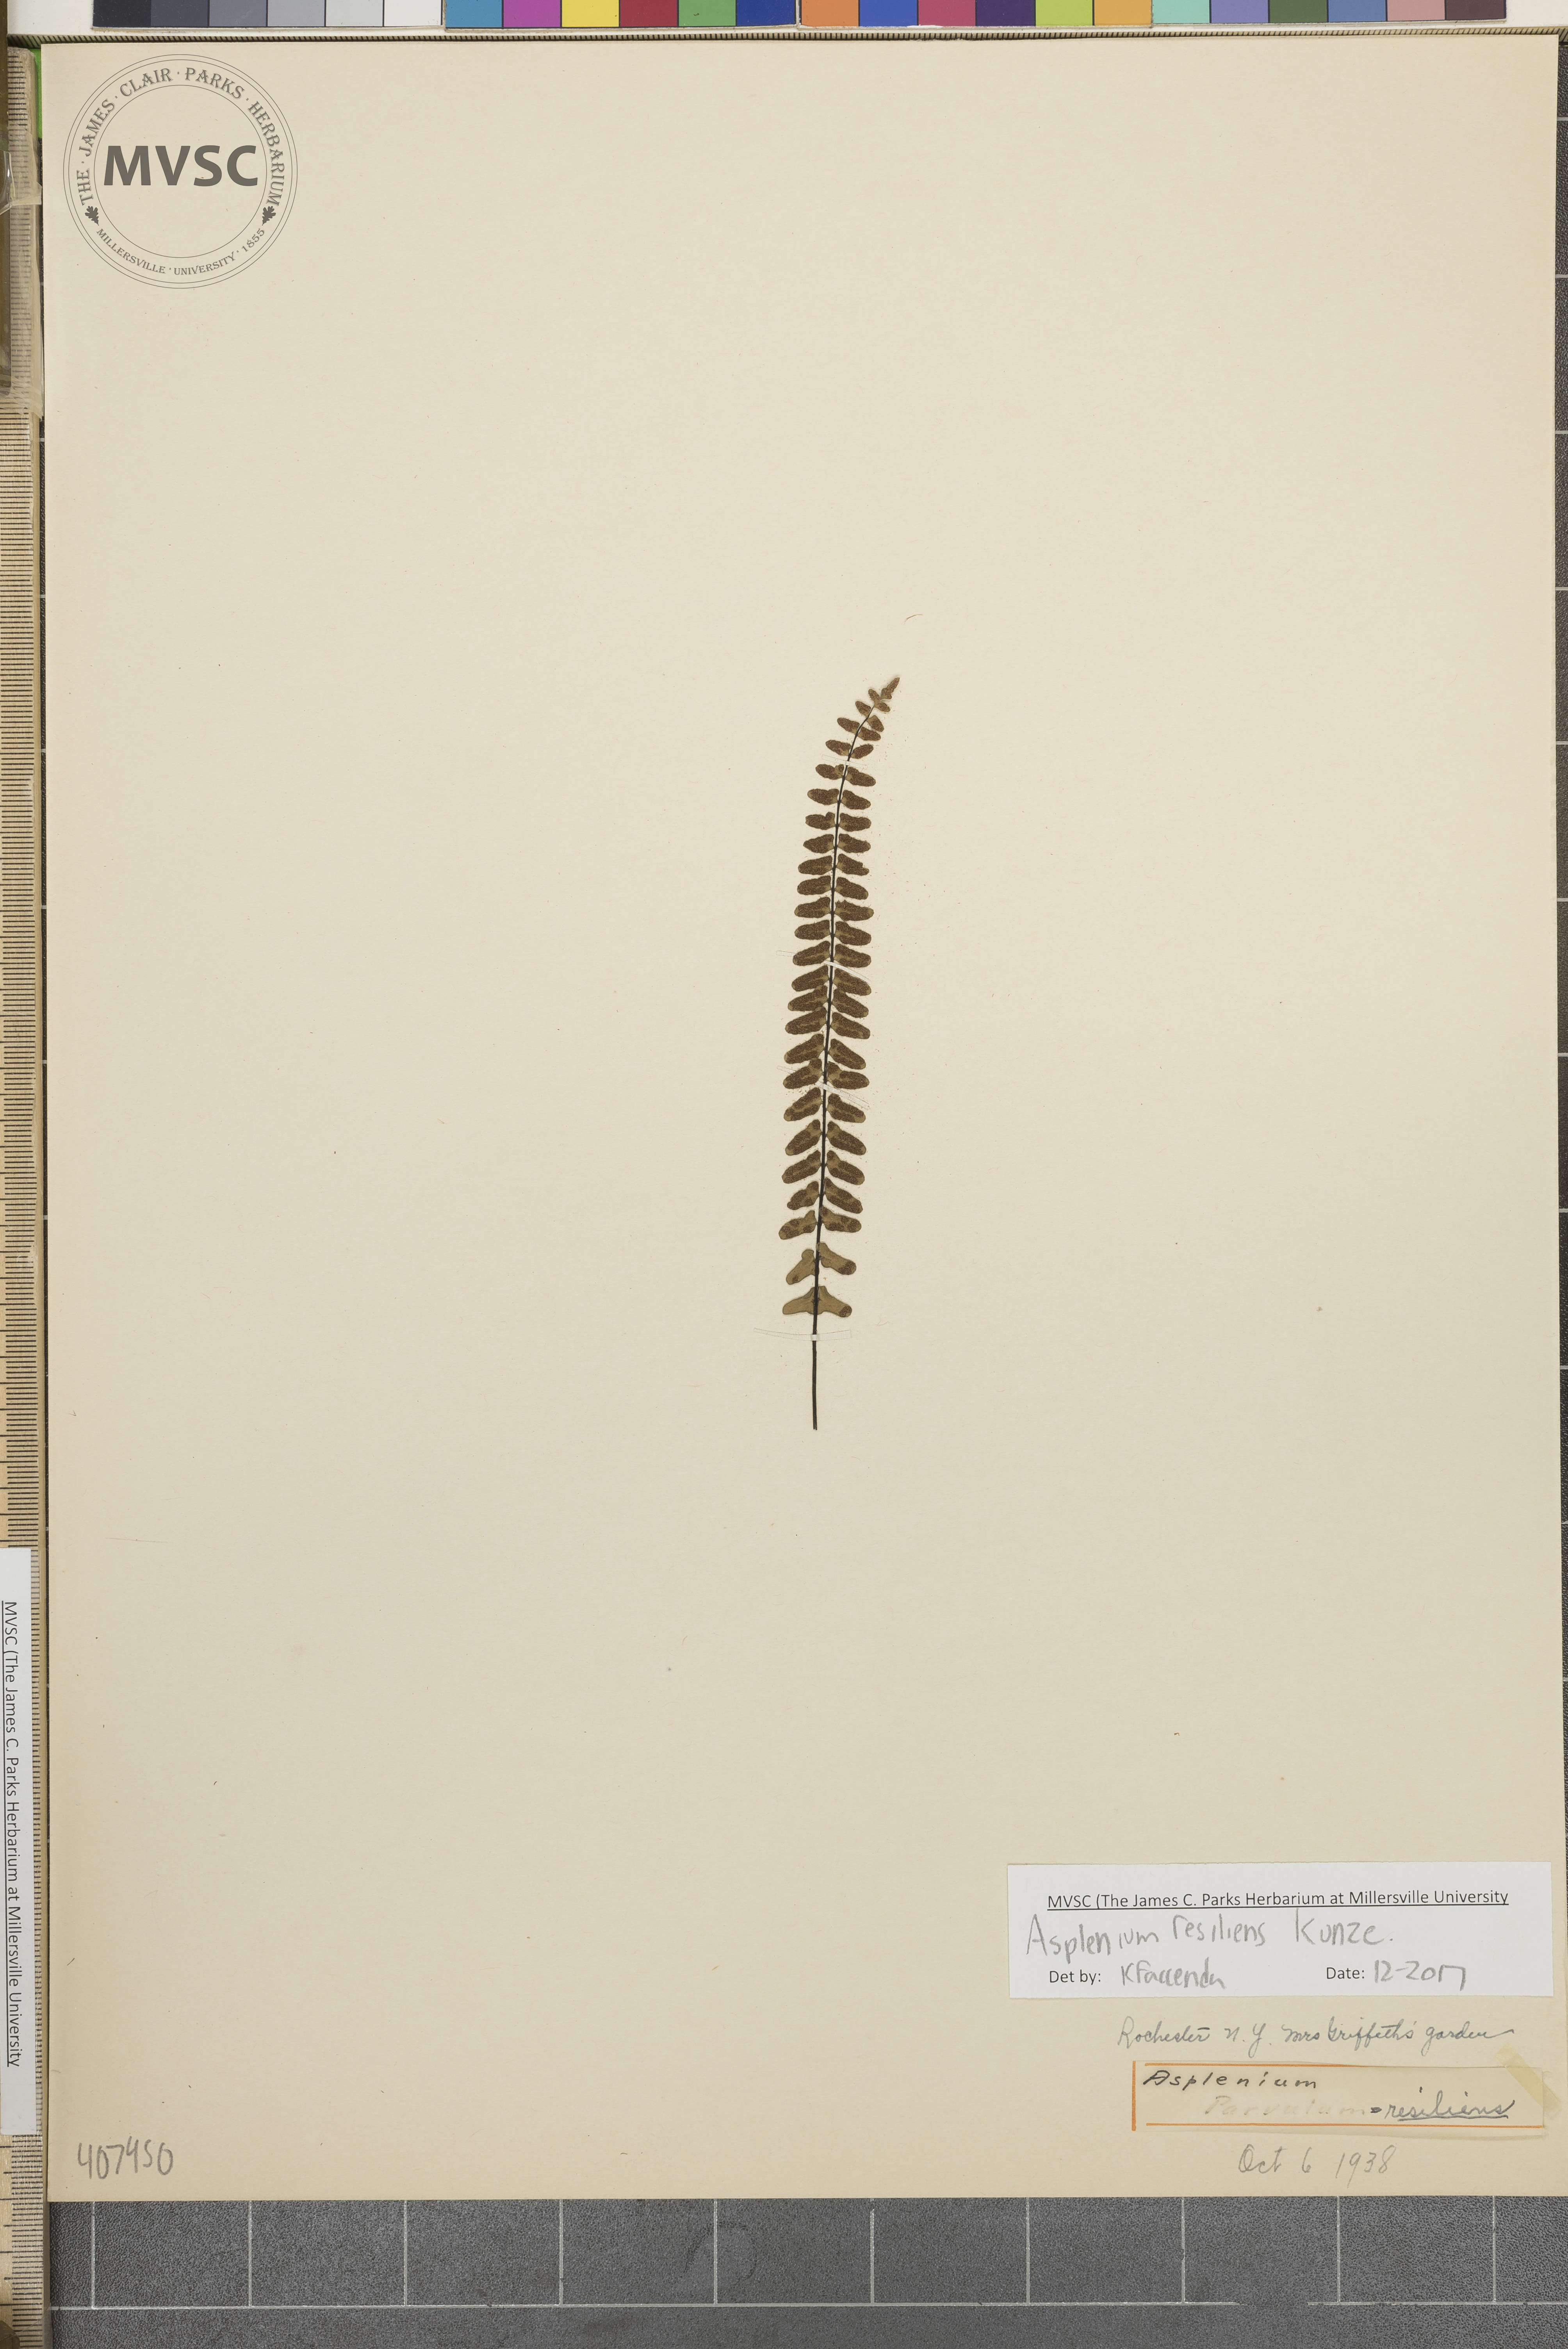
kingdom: Plantae
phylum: Tracheophyta
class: Polypodiopsida
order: Polypodiales
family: Aspleniaceae
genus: Asplenium
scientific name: Asplenium resiliens
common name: Blackstem spleenwort
